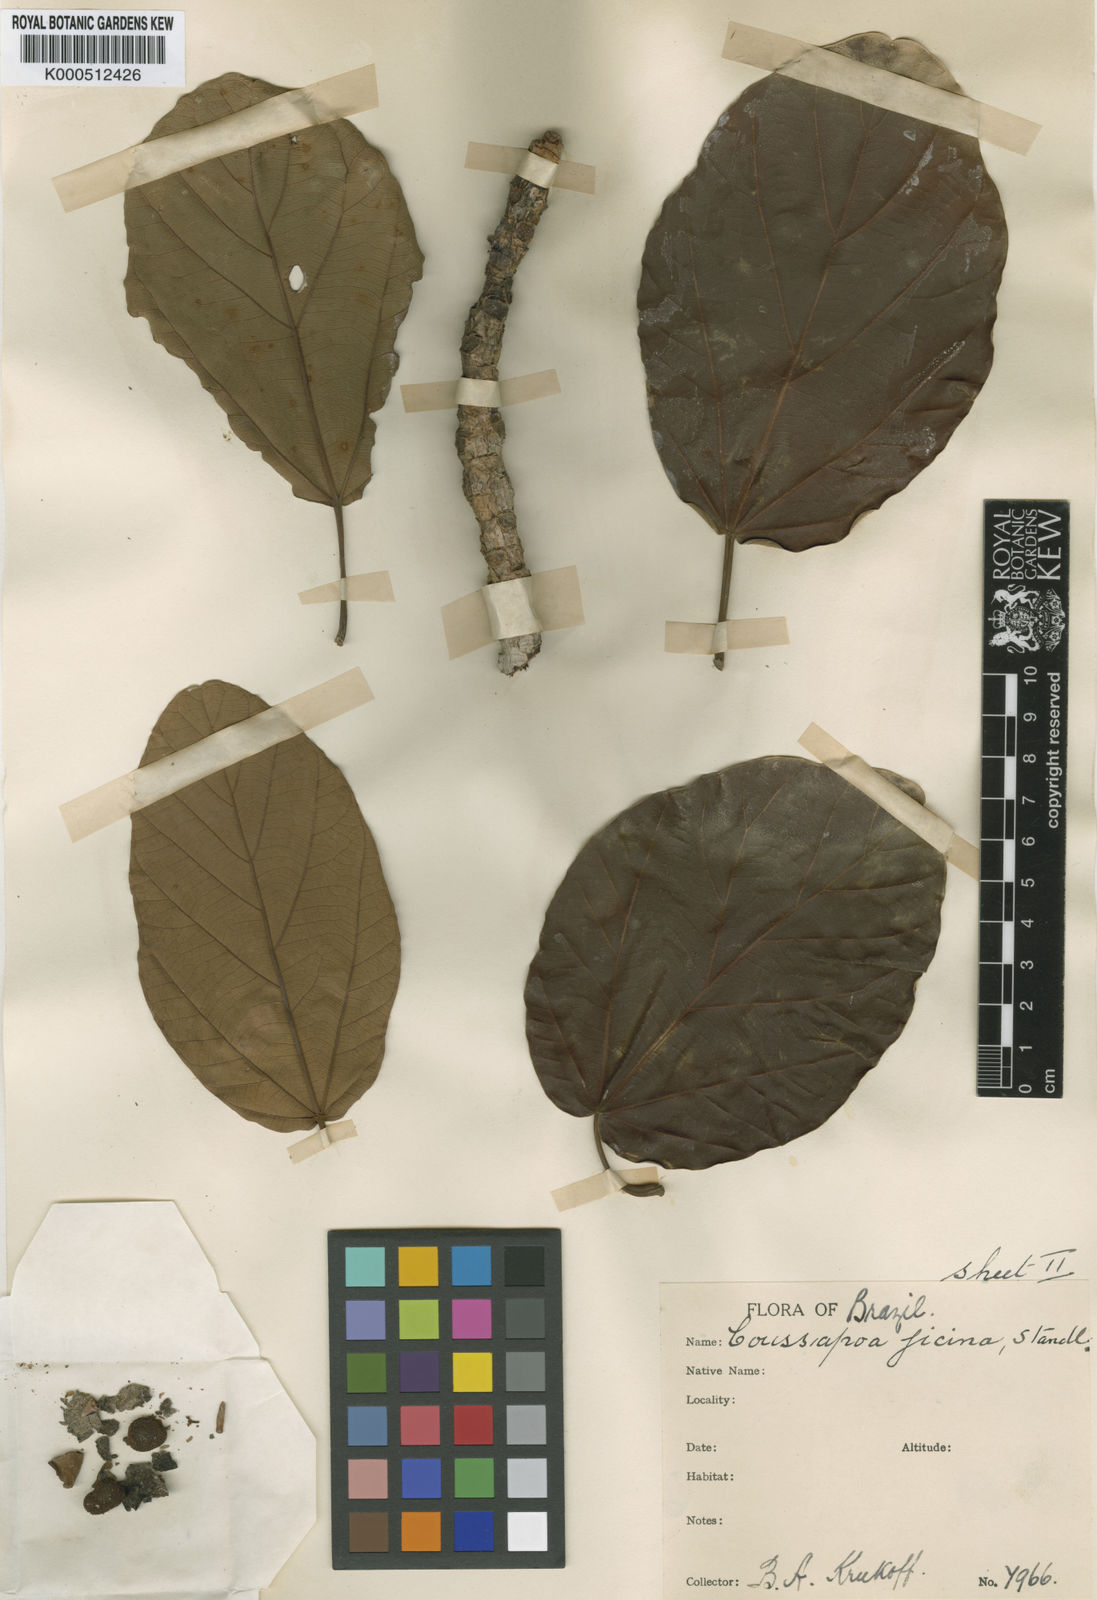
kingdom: Plantae
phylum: Tracheophyta
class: Magnoliopsida
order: Rosales
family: Urticaceae
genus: Coussapoa
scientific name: Coussapoa
